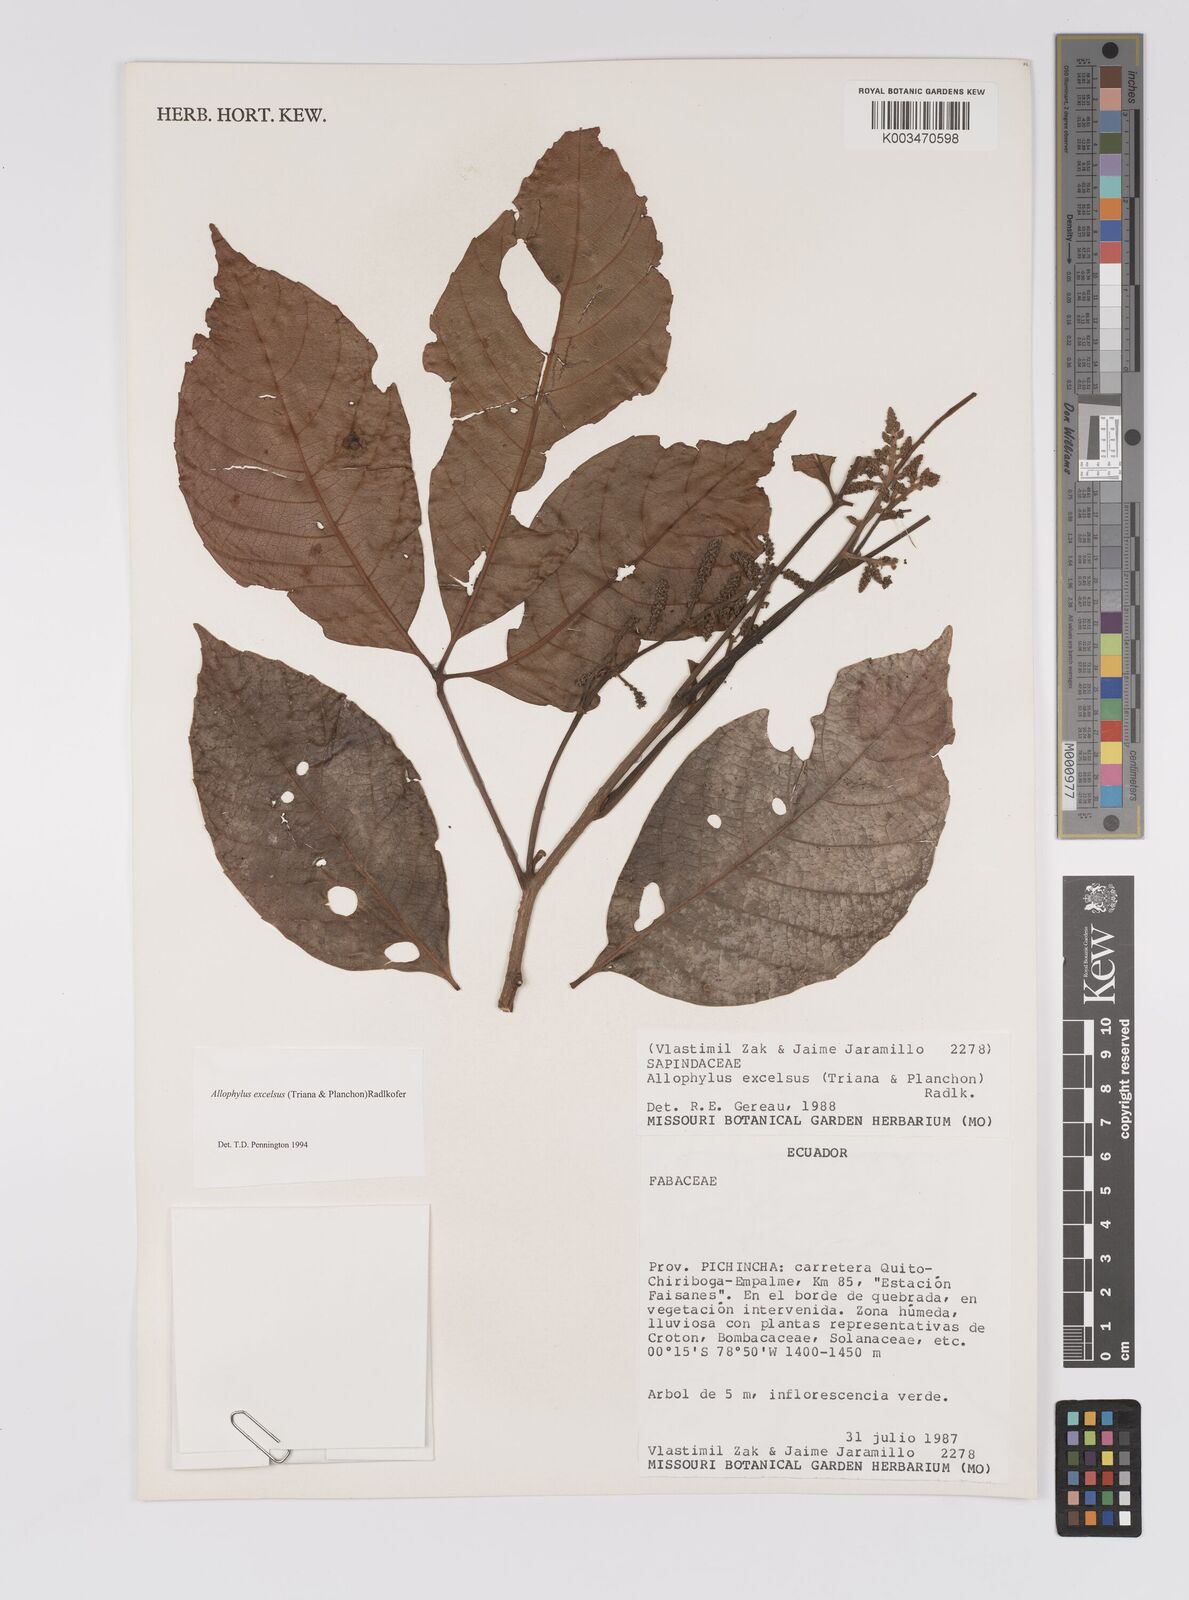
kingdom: Plantae
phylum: Tracheophyta
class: Magnoliopsida
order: Sapindales
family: Sapindaceae
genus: Allophylus
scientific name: Allophylus excelsus
